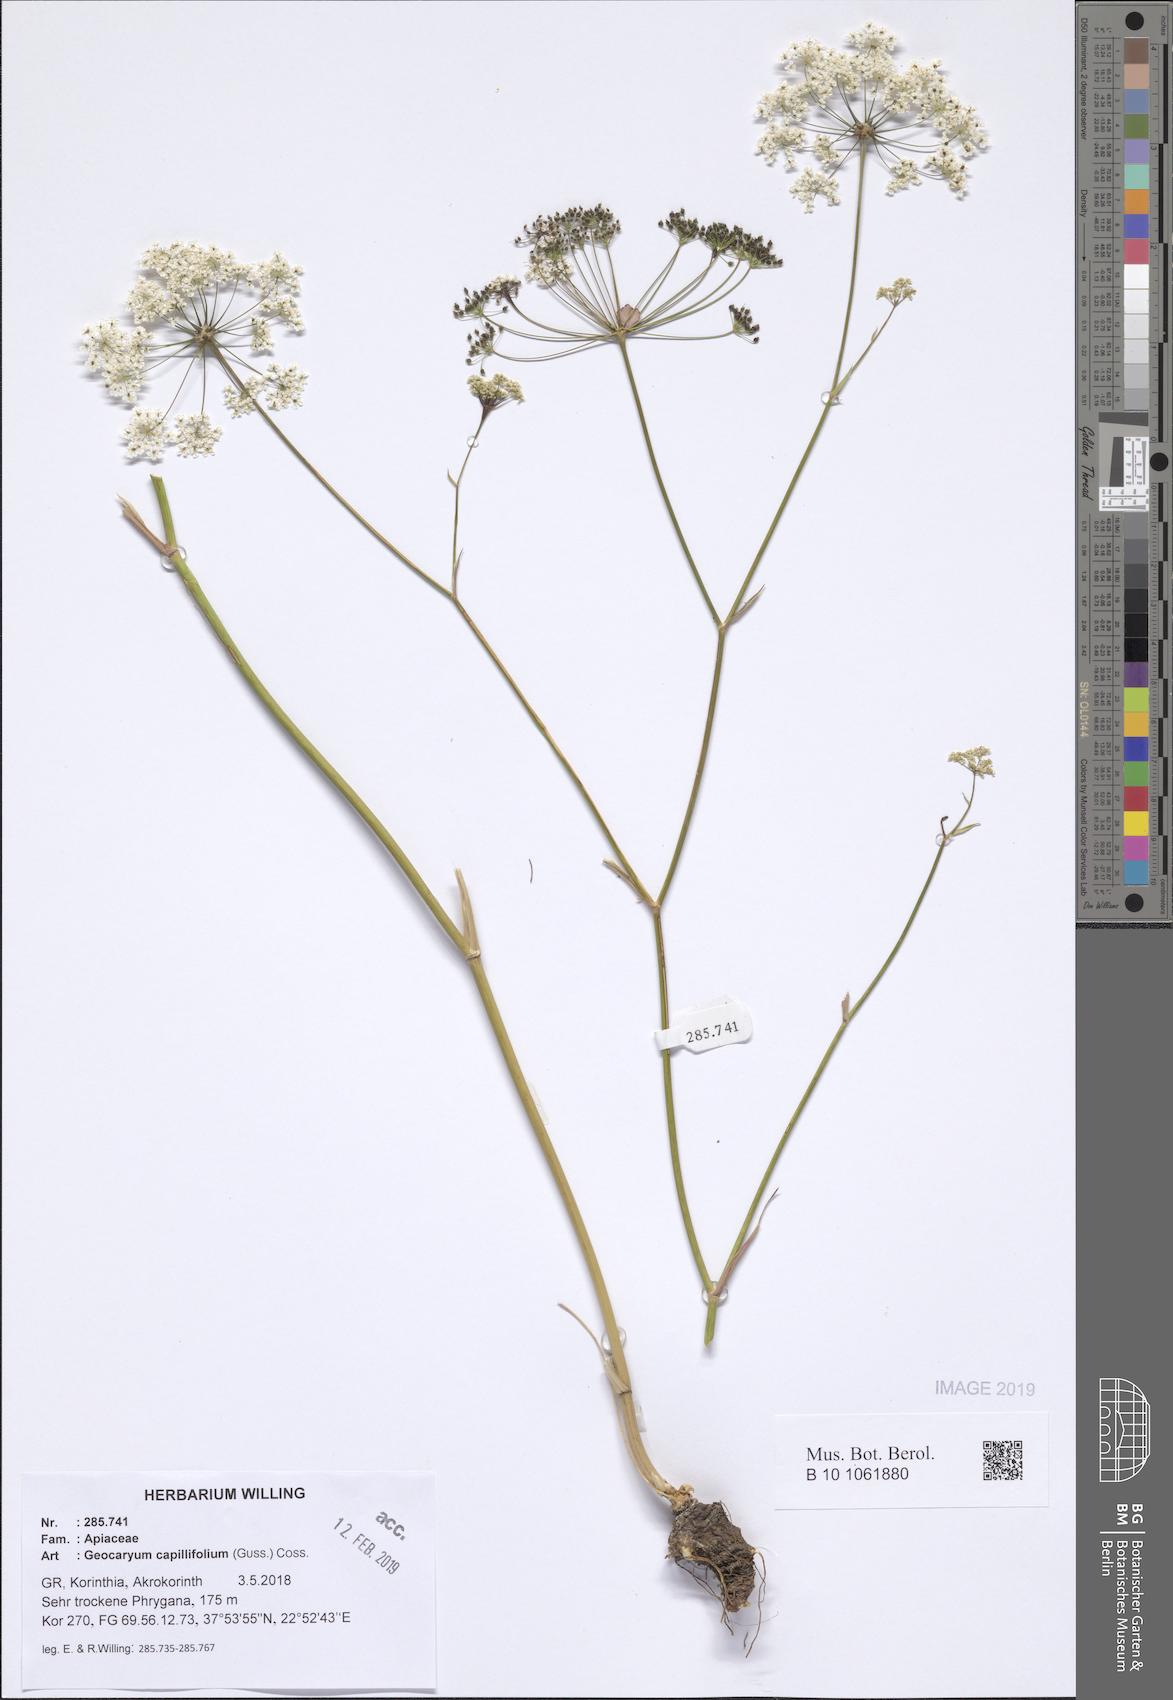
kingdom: Plantae
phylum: Tracheophyta
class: Magnoliopsida
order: Apiales
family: Apiaceae
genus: Geocaryum
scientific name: Geocaryum capillifolium
